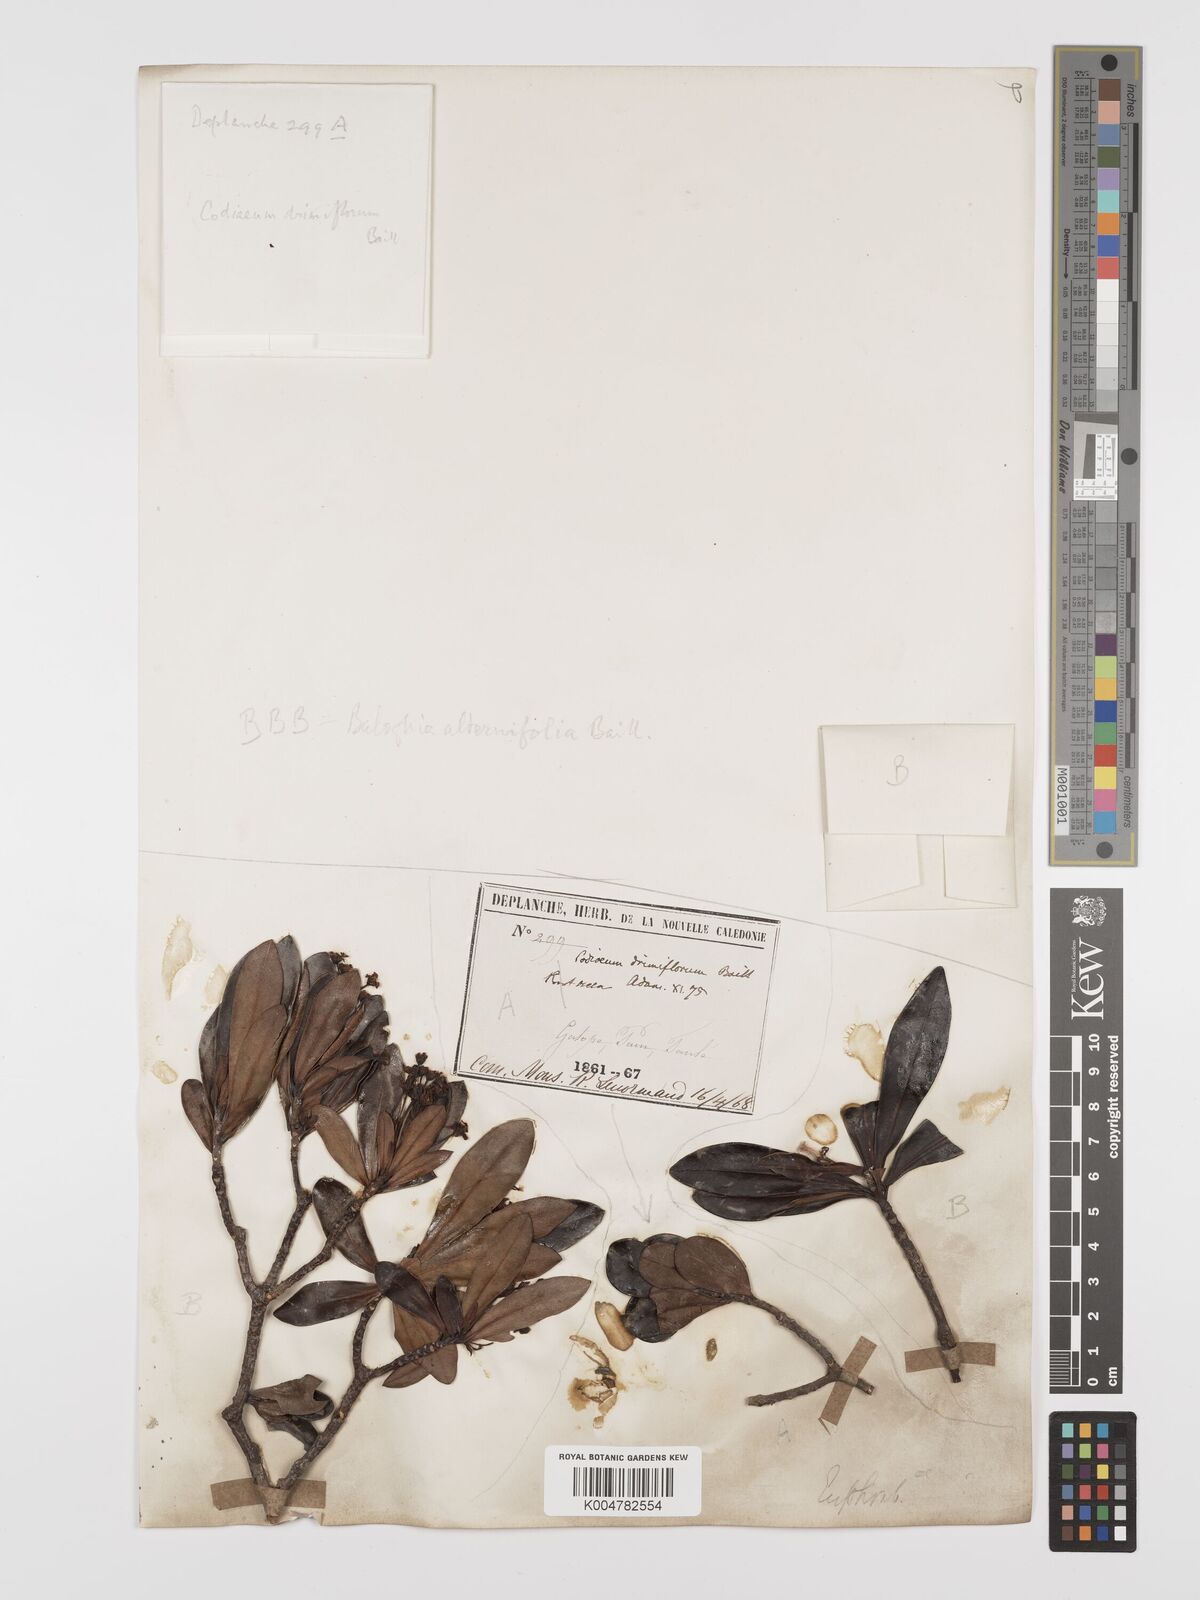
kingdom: Plantae
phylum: Tracheophyta
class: Magnoliopsida
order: Malpighiales
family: Euphorbiaceae
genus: Baloghia
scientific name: Baloghia alternifolia
